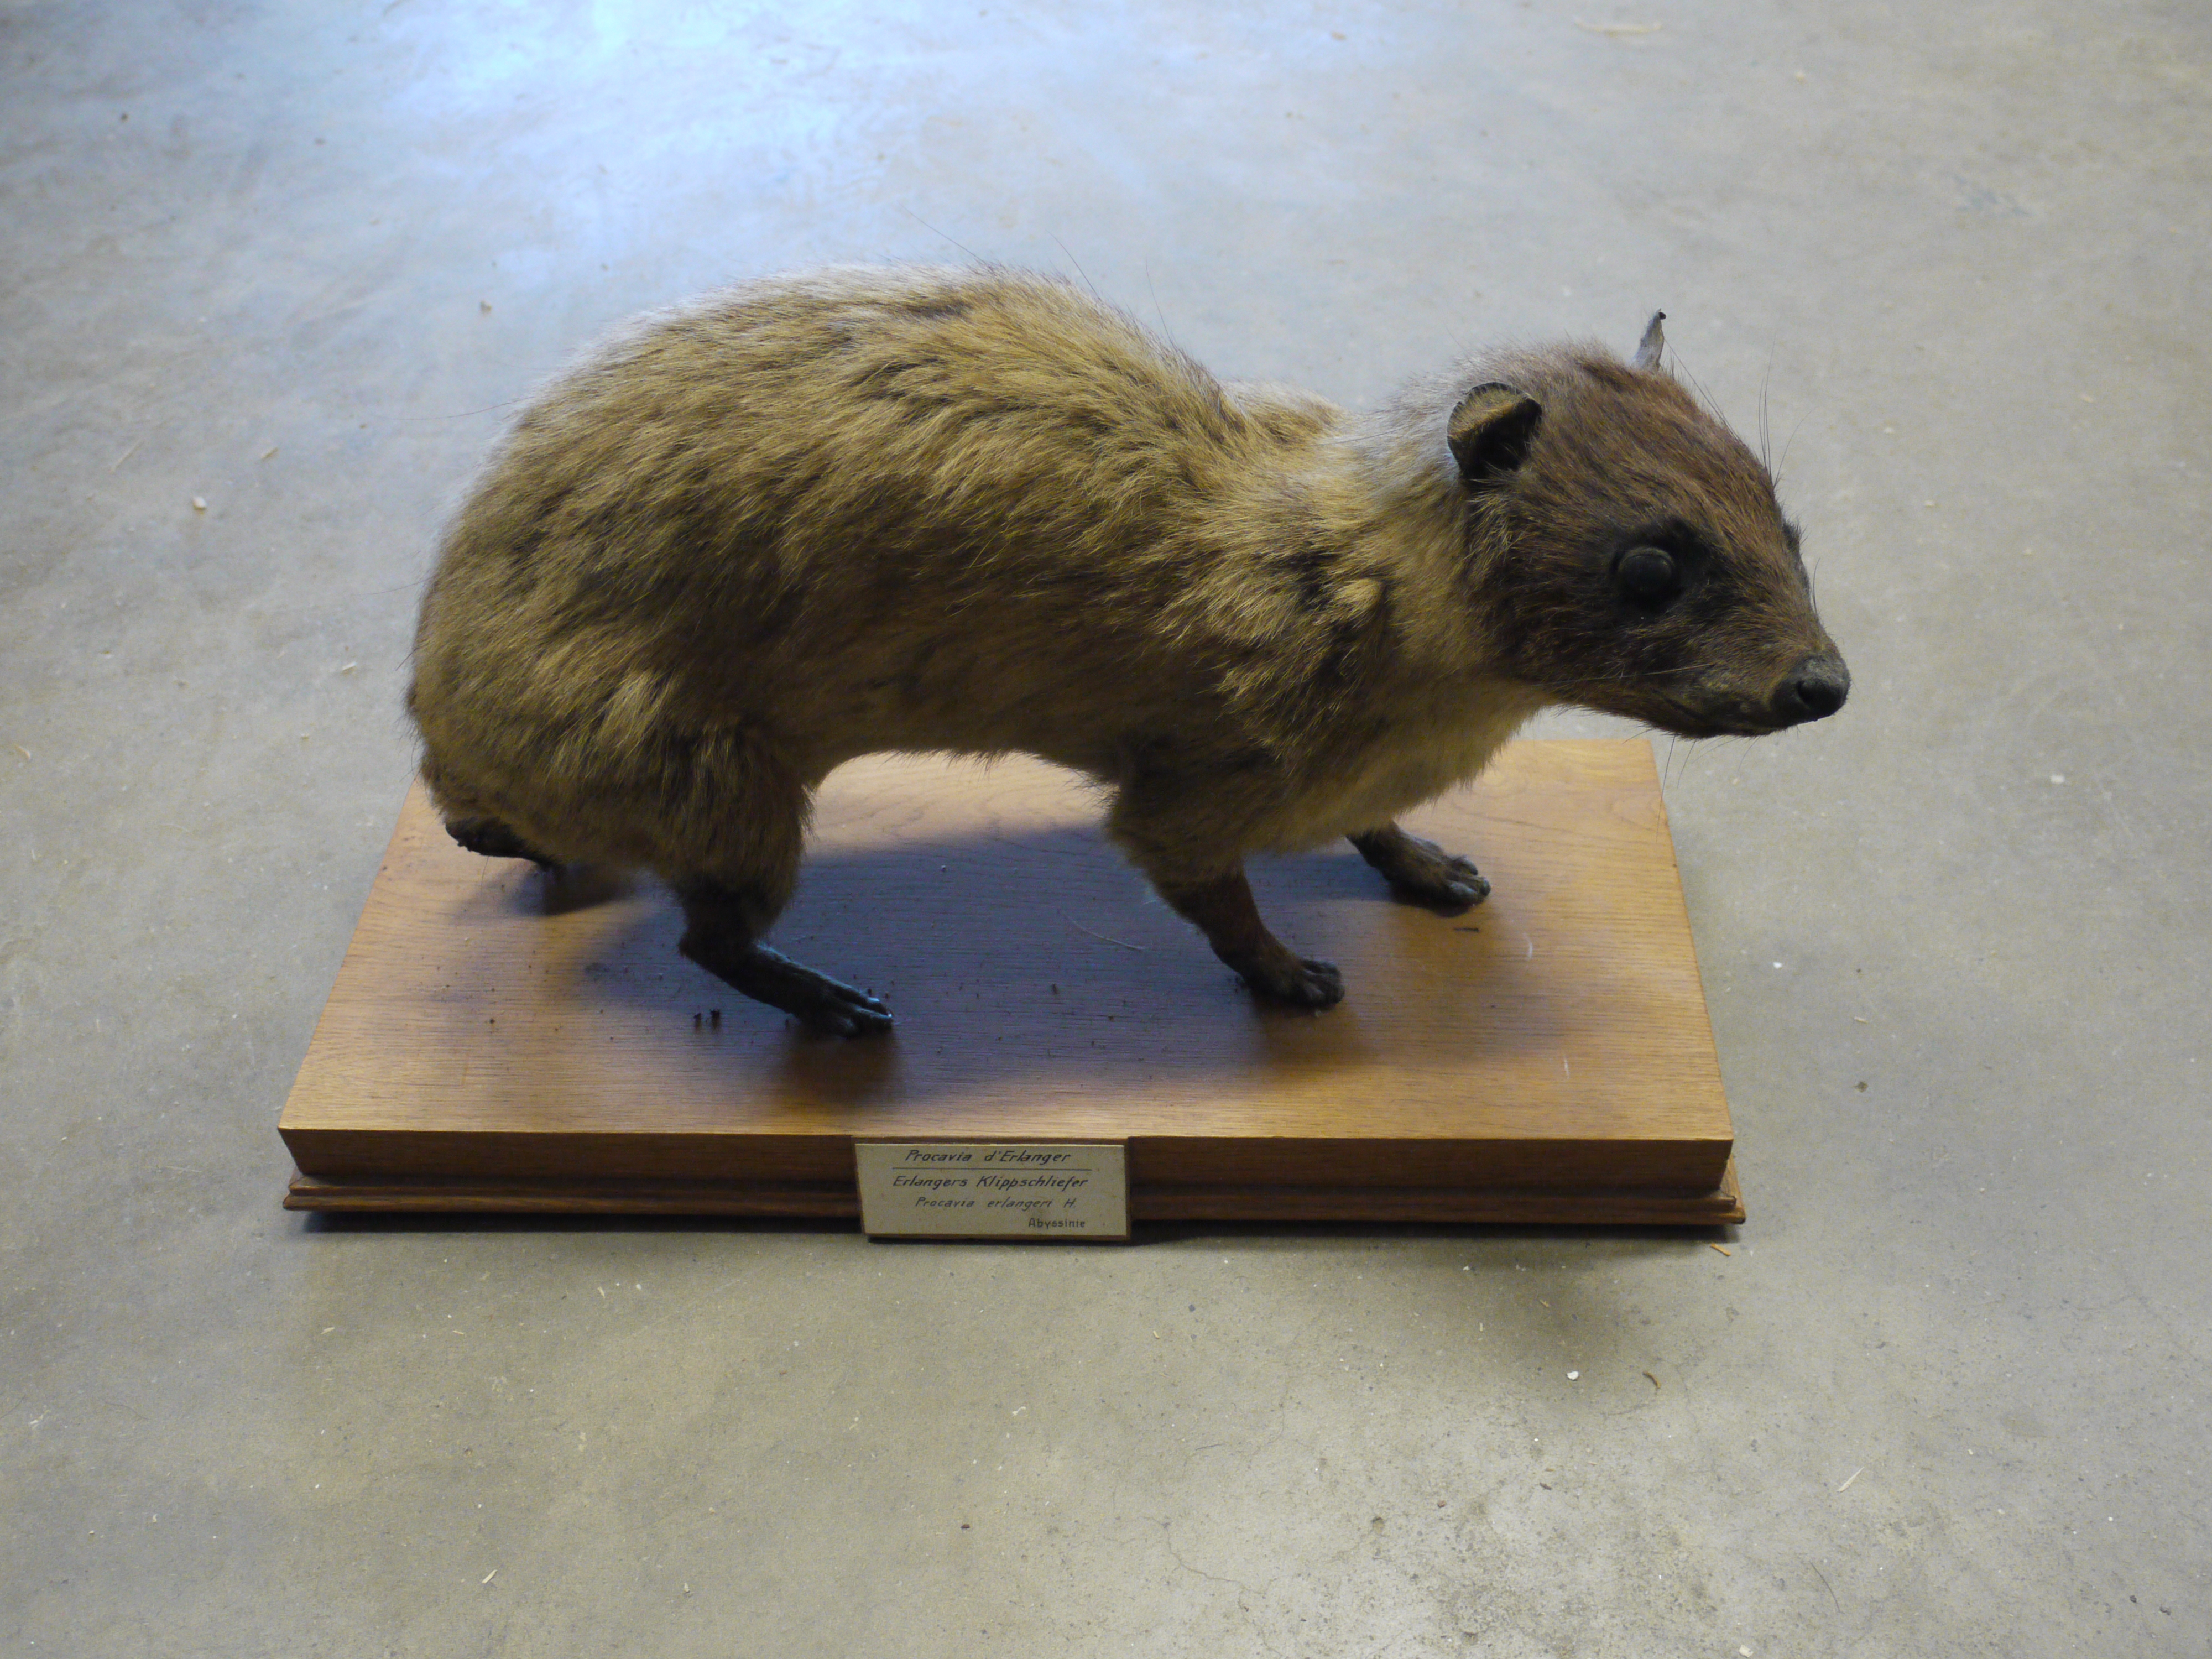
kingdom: Animalia
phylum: Chordata
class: Mammalia
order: Hyracoidea
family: Procaviidae
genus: Procavia
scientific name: Procavia capensis
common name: Rock hyrax
